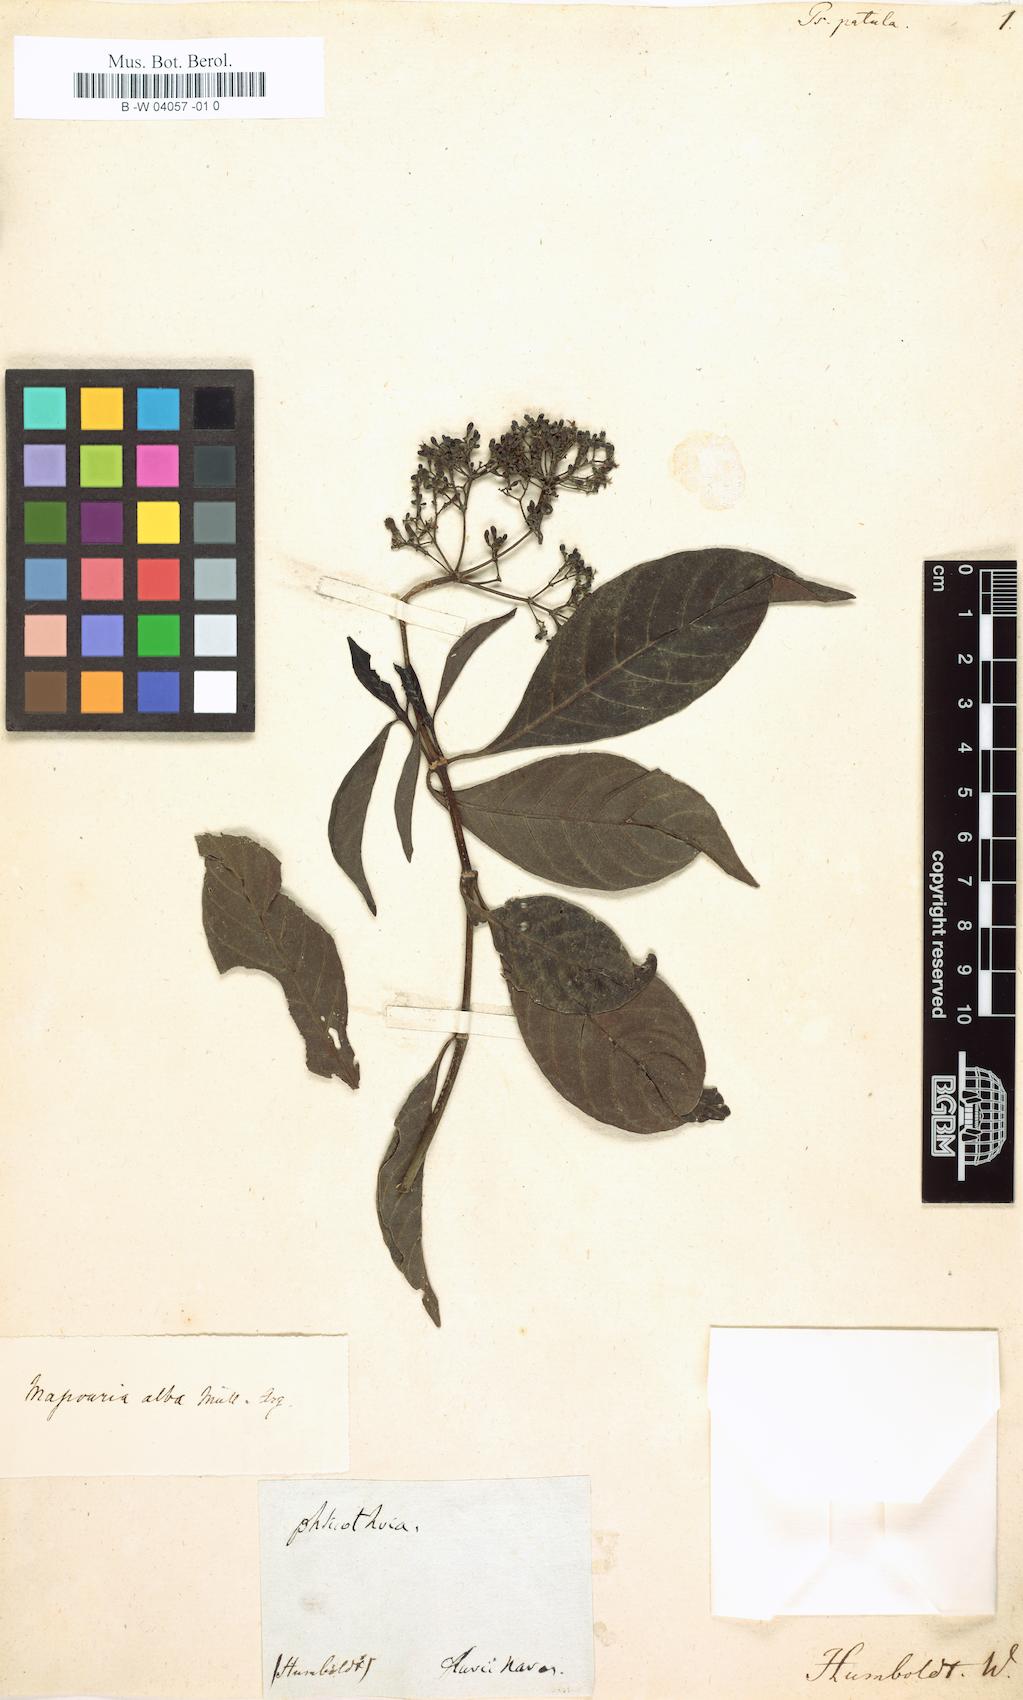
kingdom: Plantae
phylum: Tracheophyta
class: Magnoliopsida
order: Gentianales
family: Rubiaceae
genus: Psychotria
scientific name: Psychotria patula
